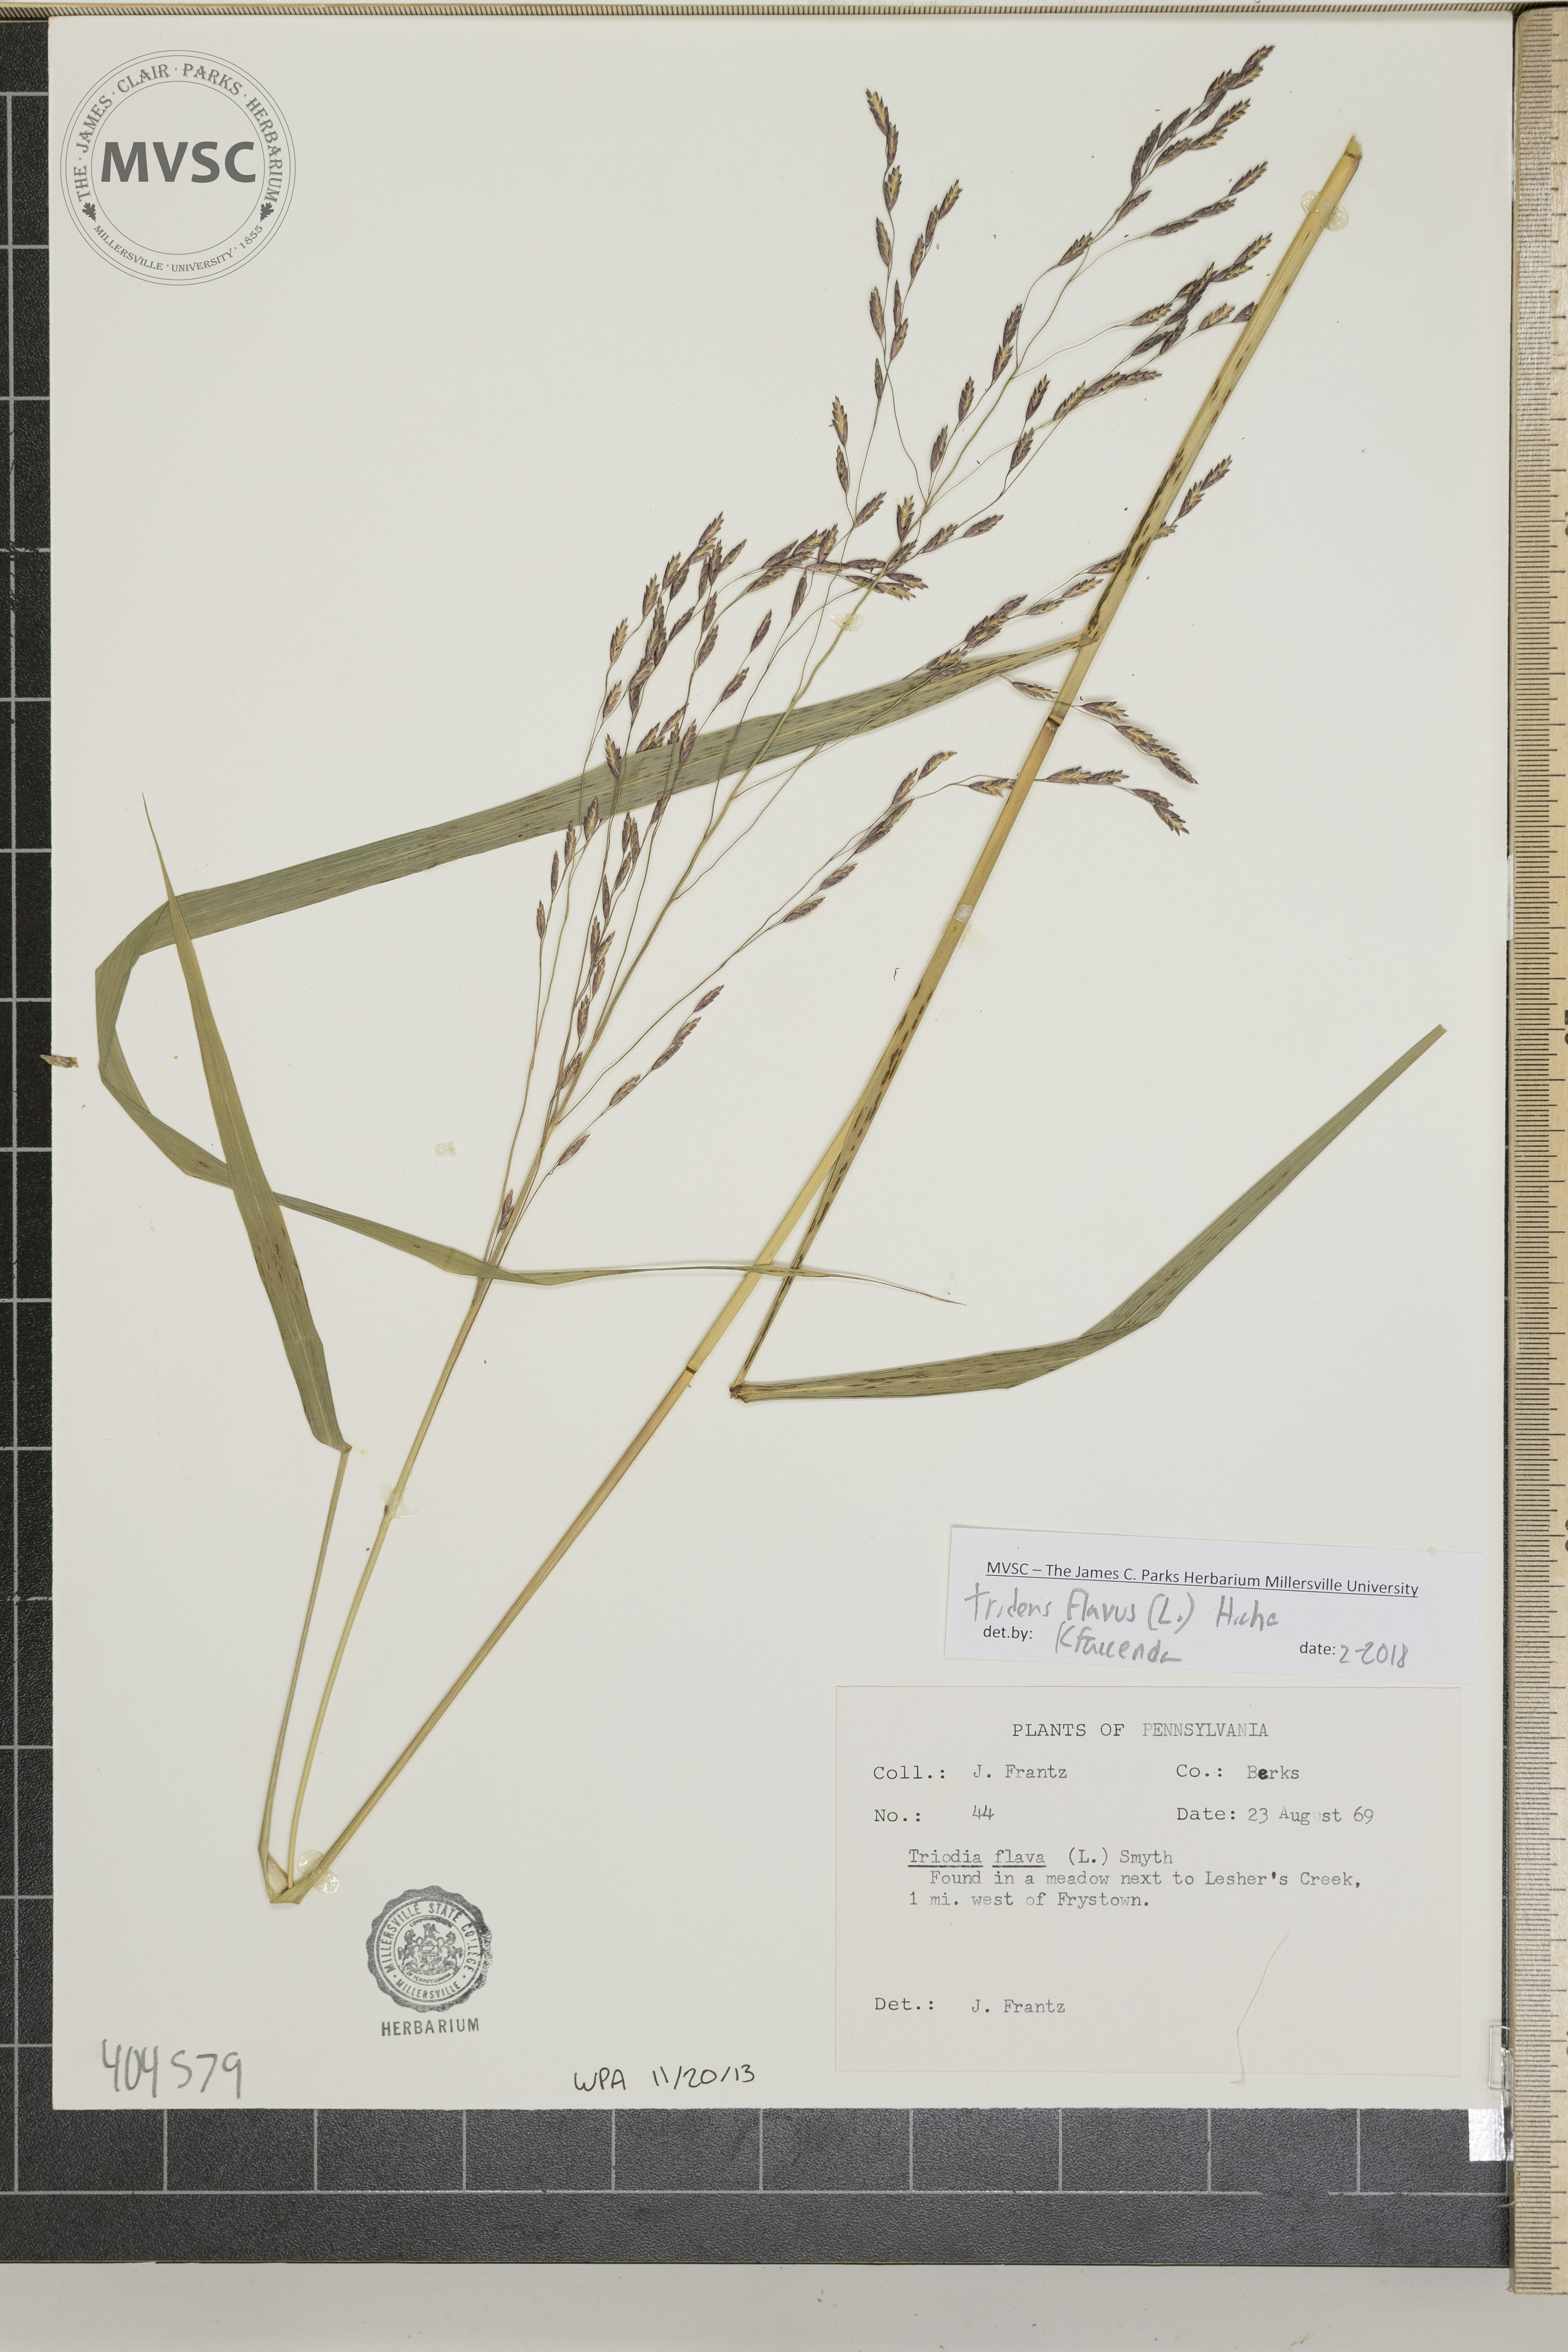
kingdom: Plantae
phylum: Tracheophyta
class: Liliopsida
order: Poales
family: Poaceae
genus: Tridens
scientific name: Tridens flavus
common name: Purpletop
